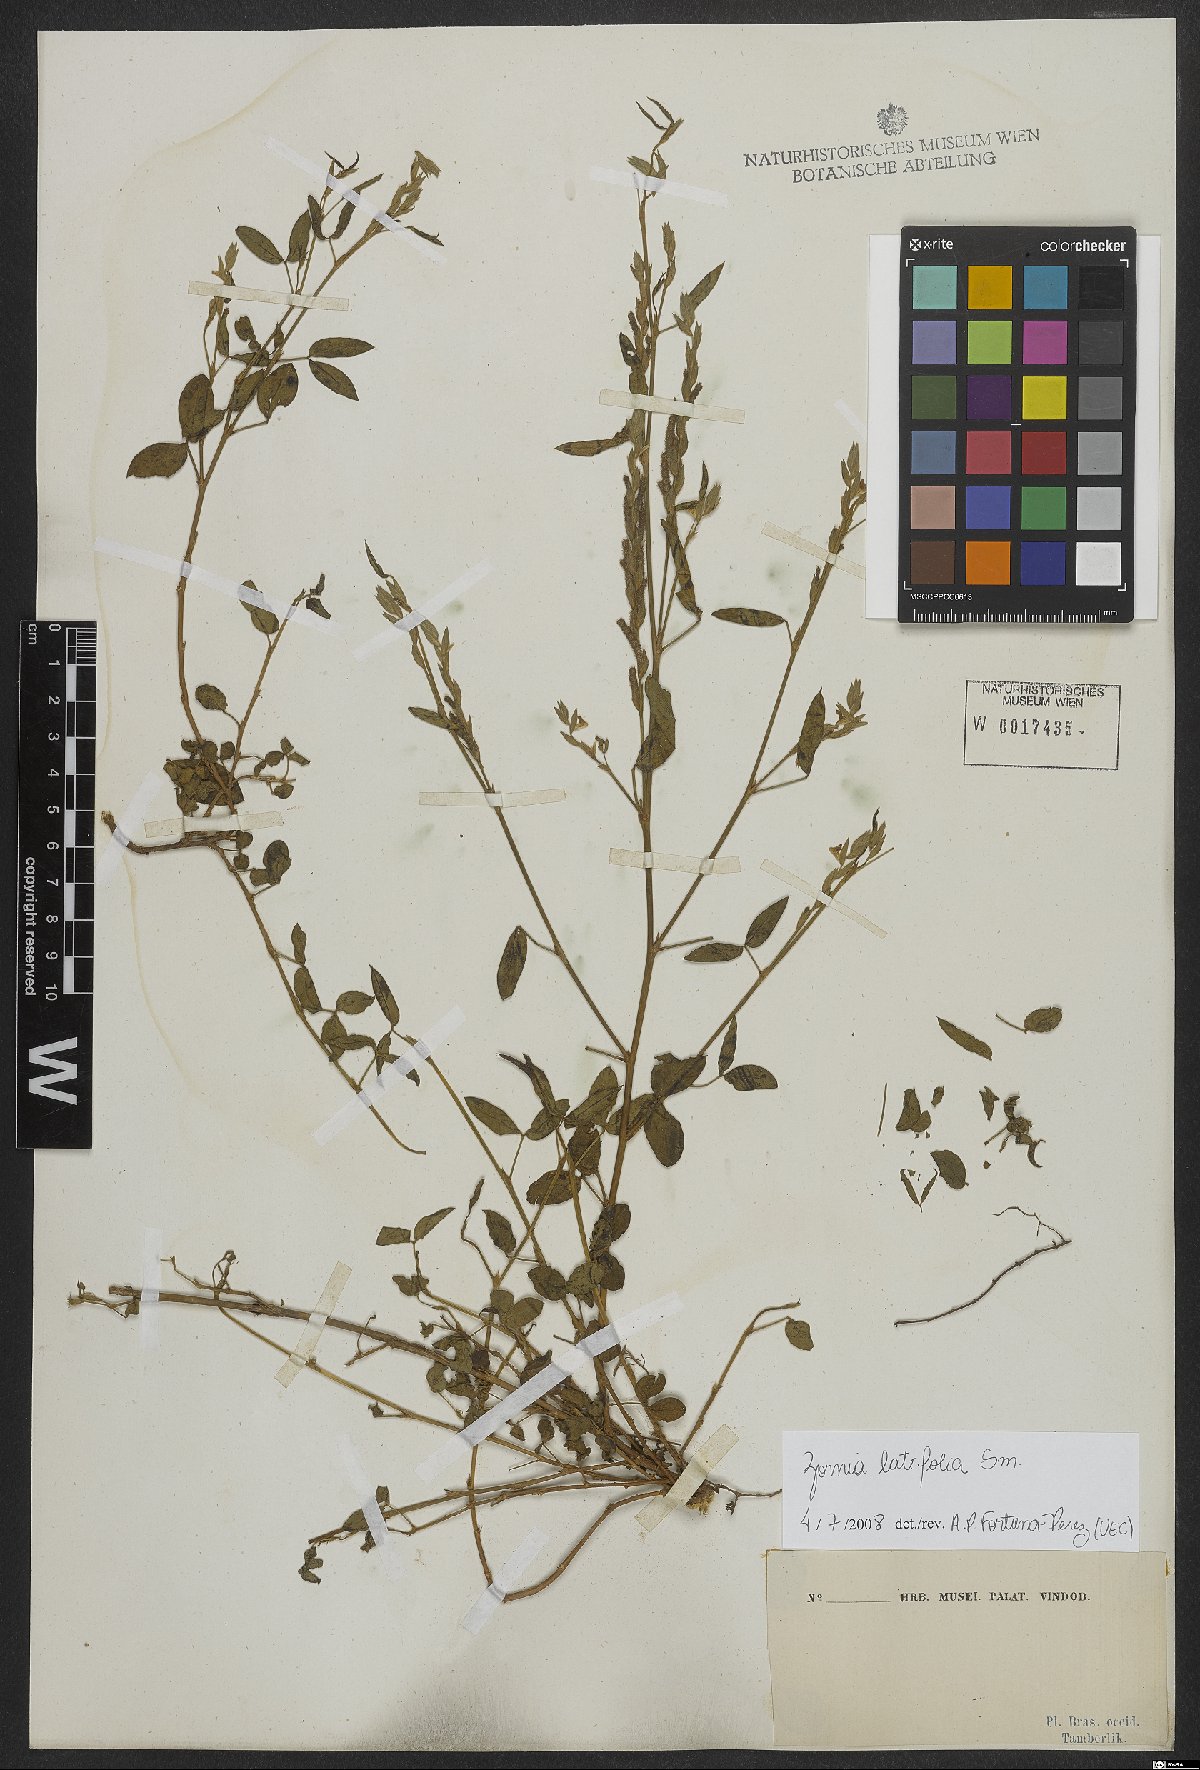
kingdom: Plantae
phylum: Tracheophyta
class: Magnoliopsida
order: Fabales
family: Fabaceae
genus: Zornia
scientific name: Zornia sericea
